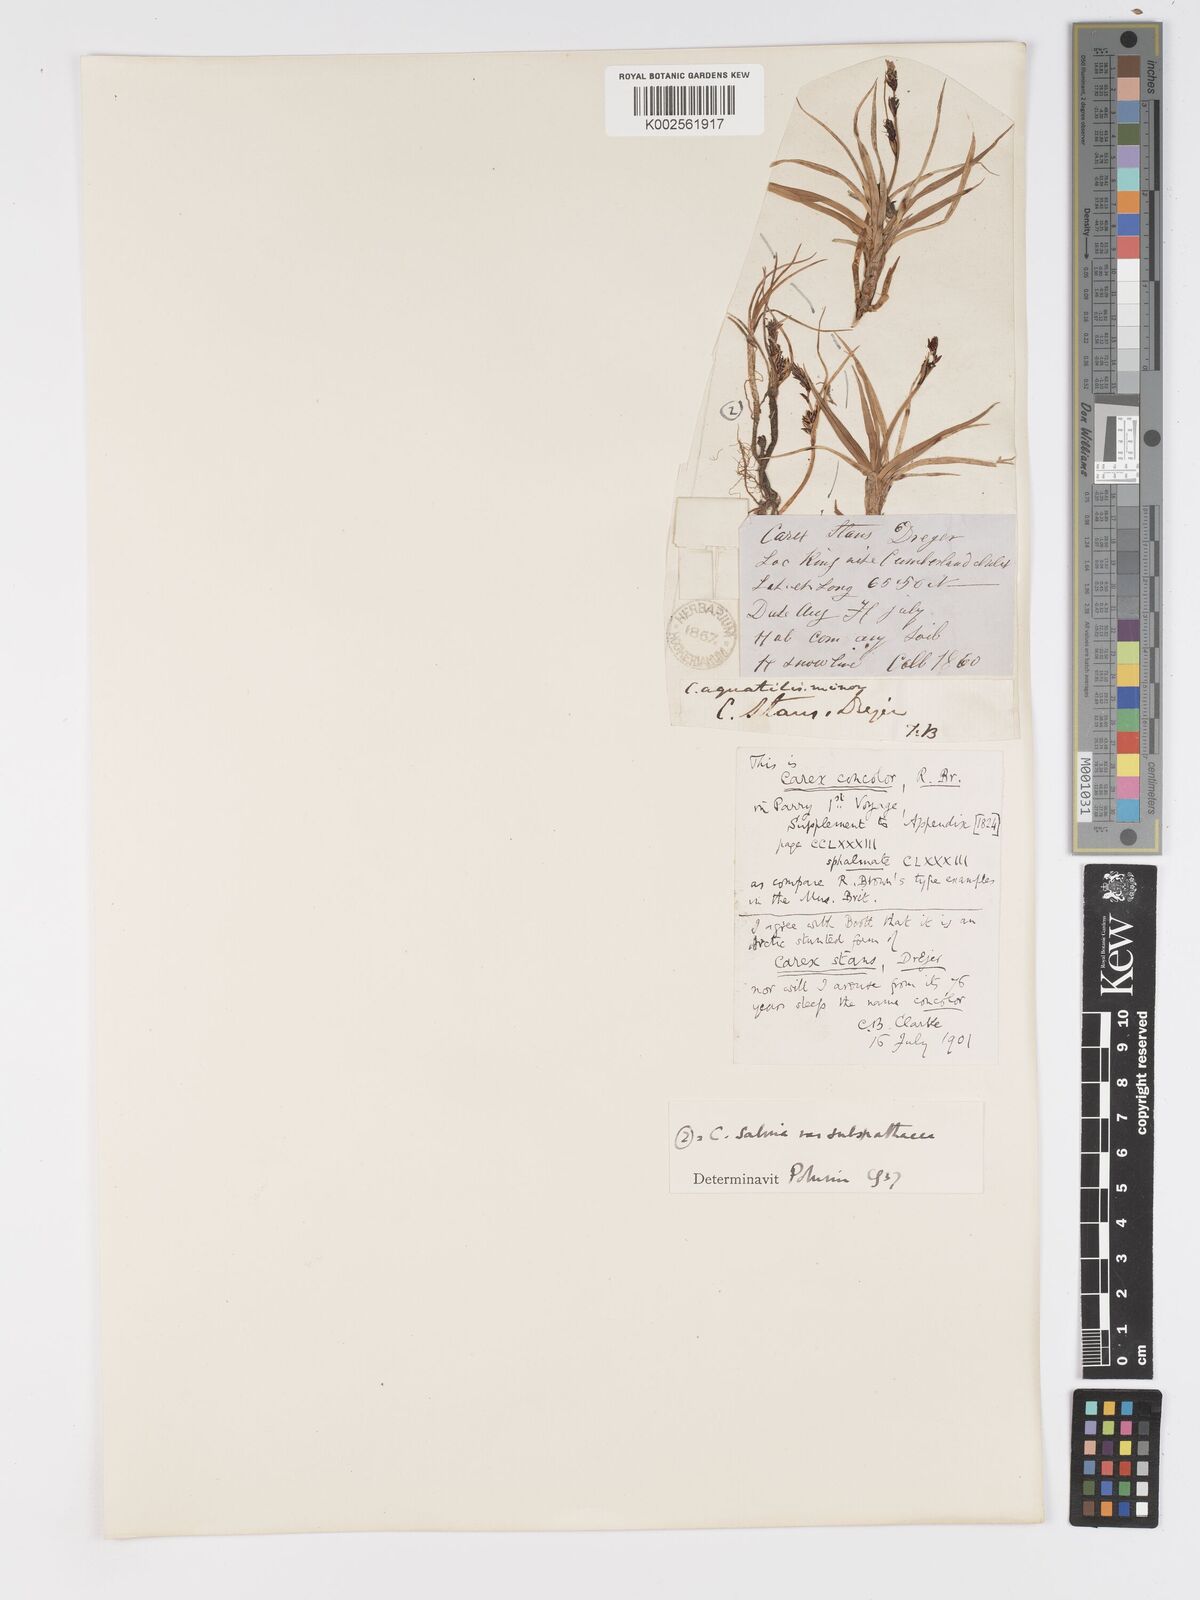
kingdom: Plantae
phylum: Tracheophyta
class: Liliopsida
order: Poales
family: Cyperaceae
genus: Carex
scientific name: Carex bigelowii
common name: Stiff sedge
